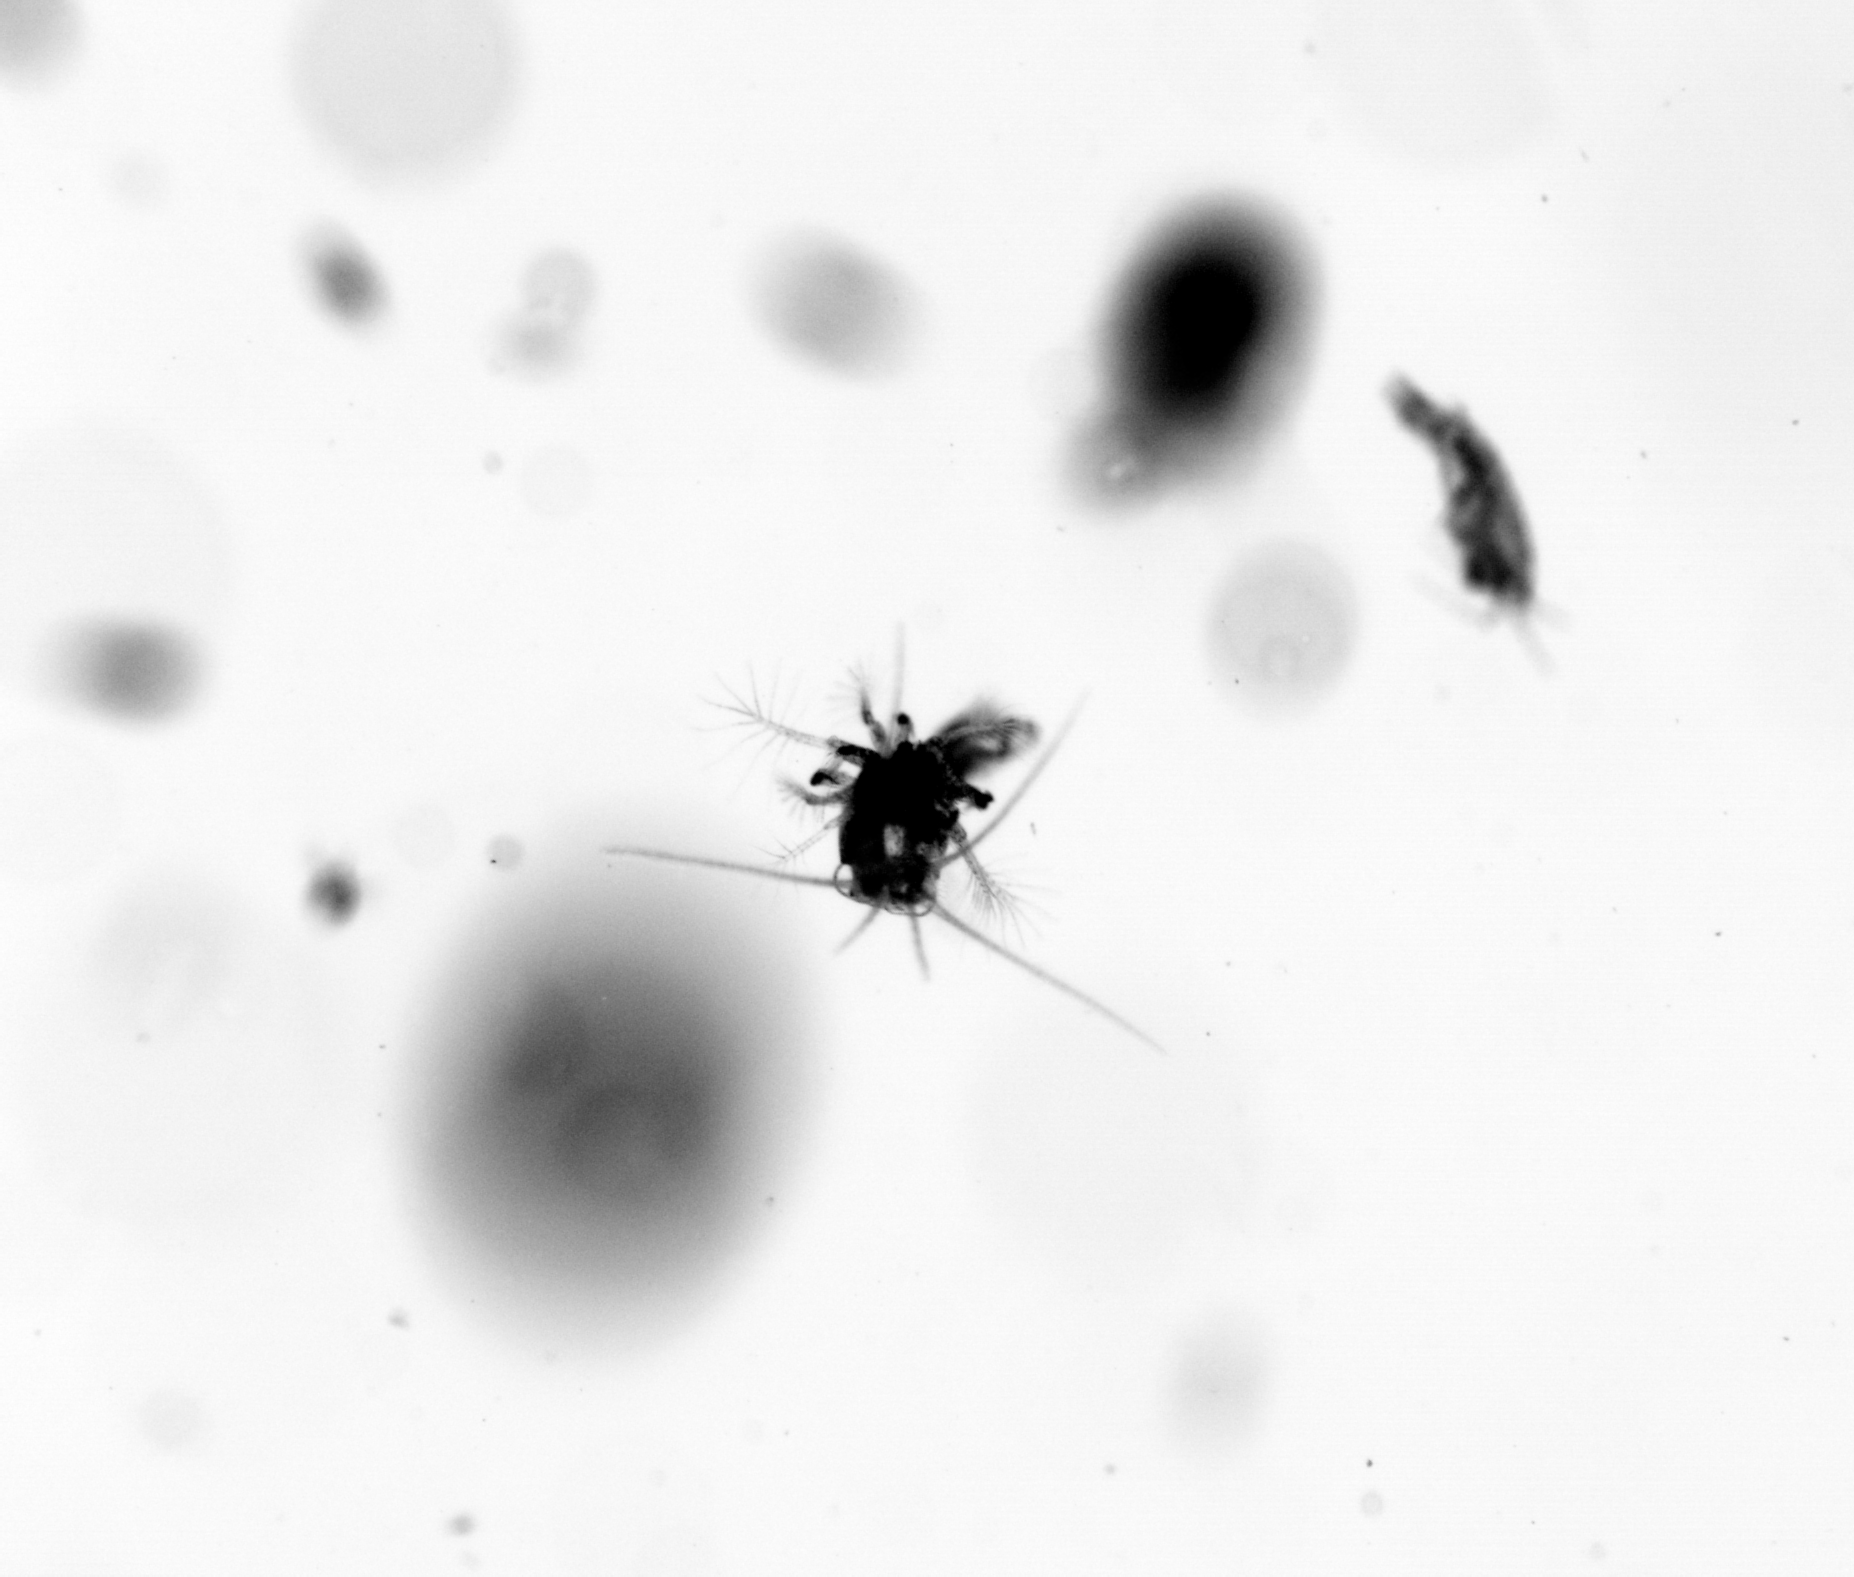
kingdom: Animalia
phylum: Arthropoda
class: Copepoda
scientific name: Copepoda
